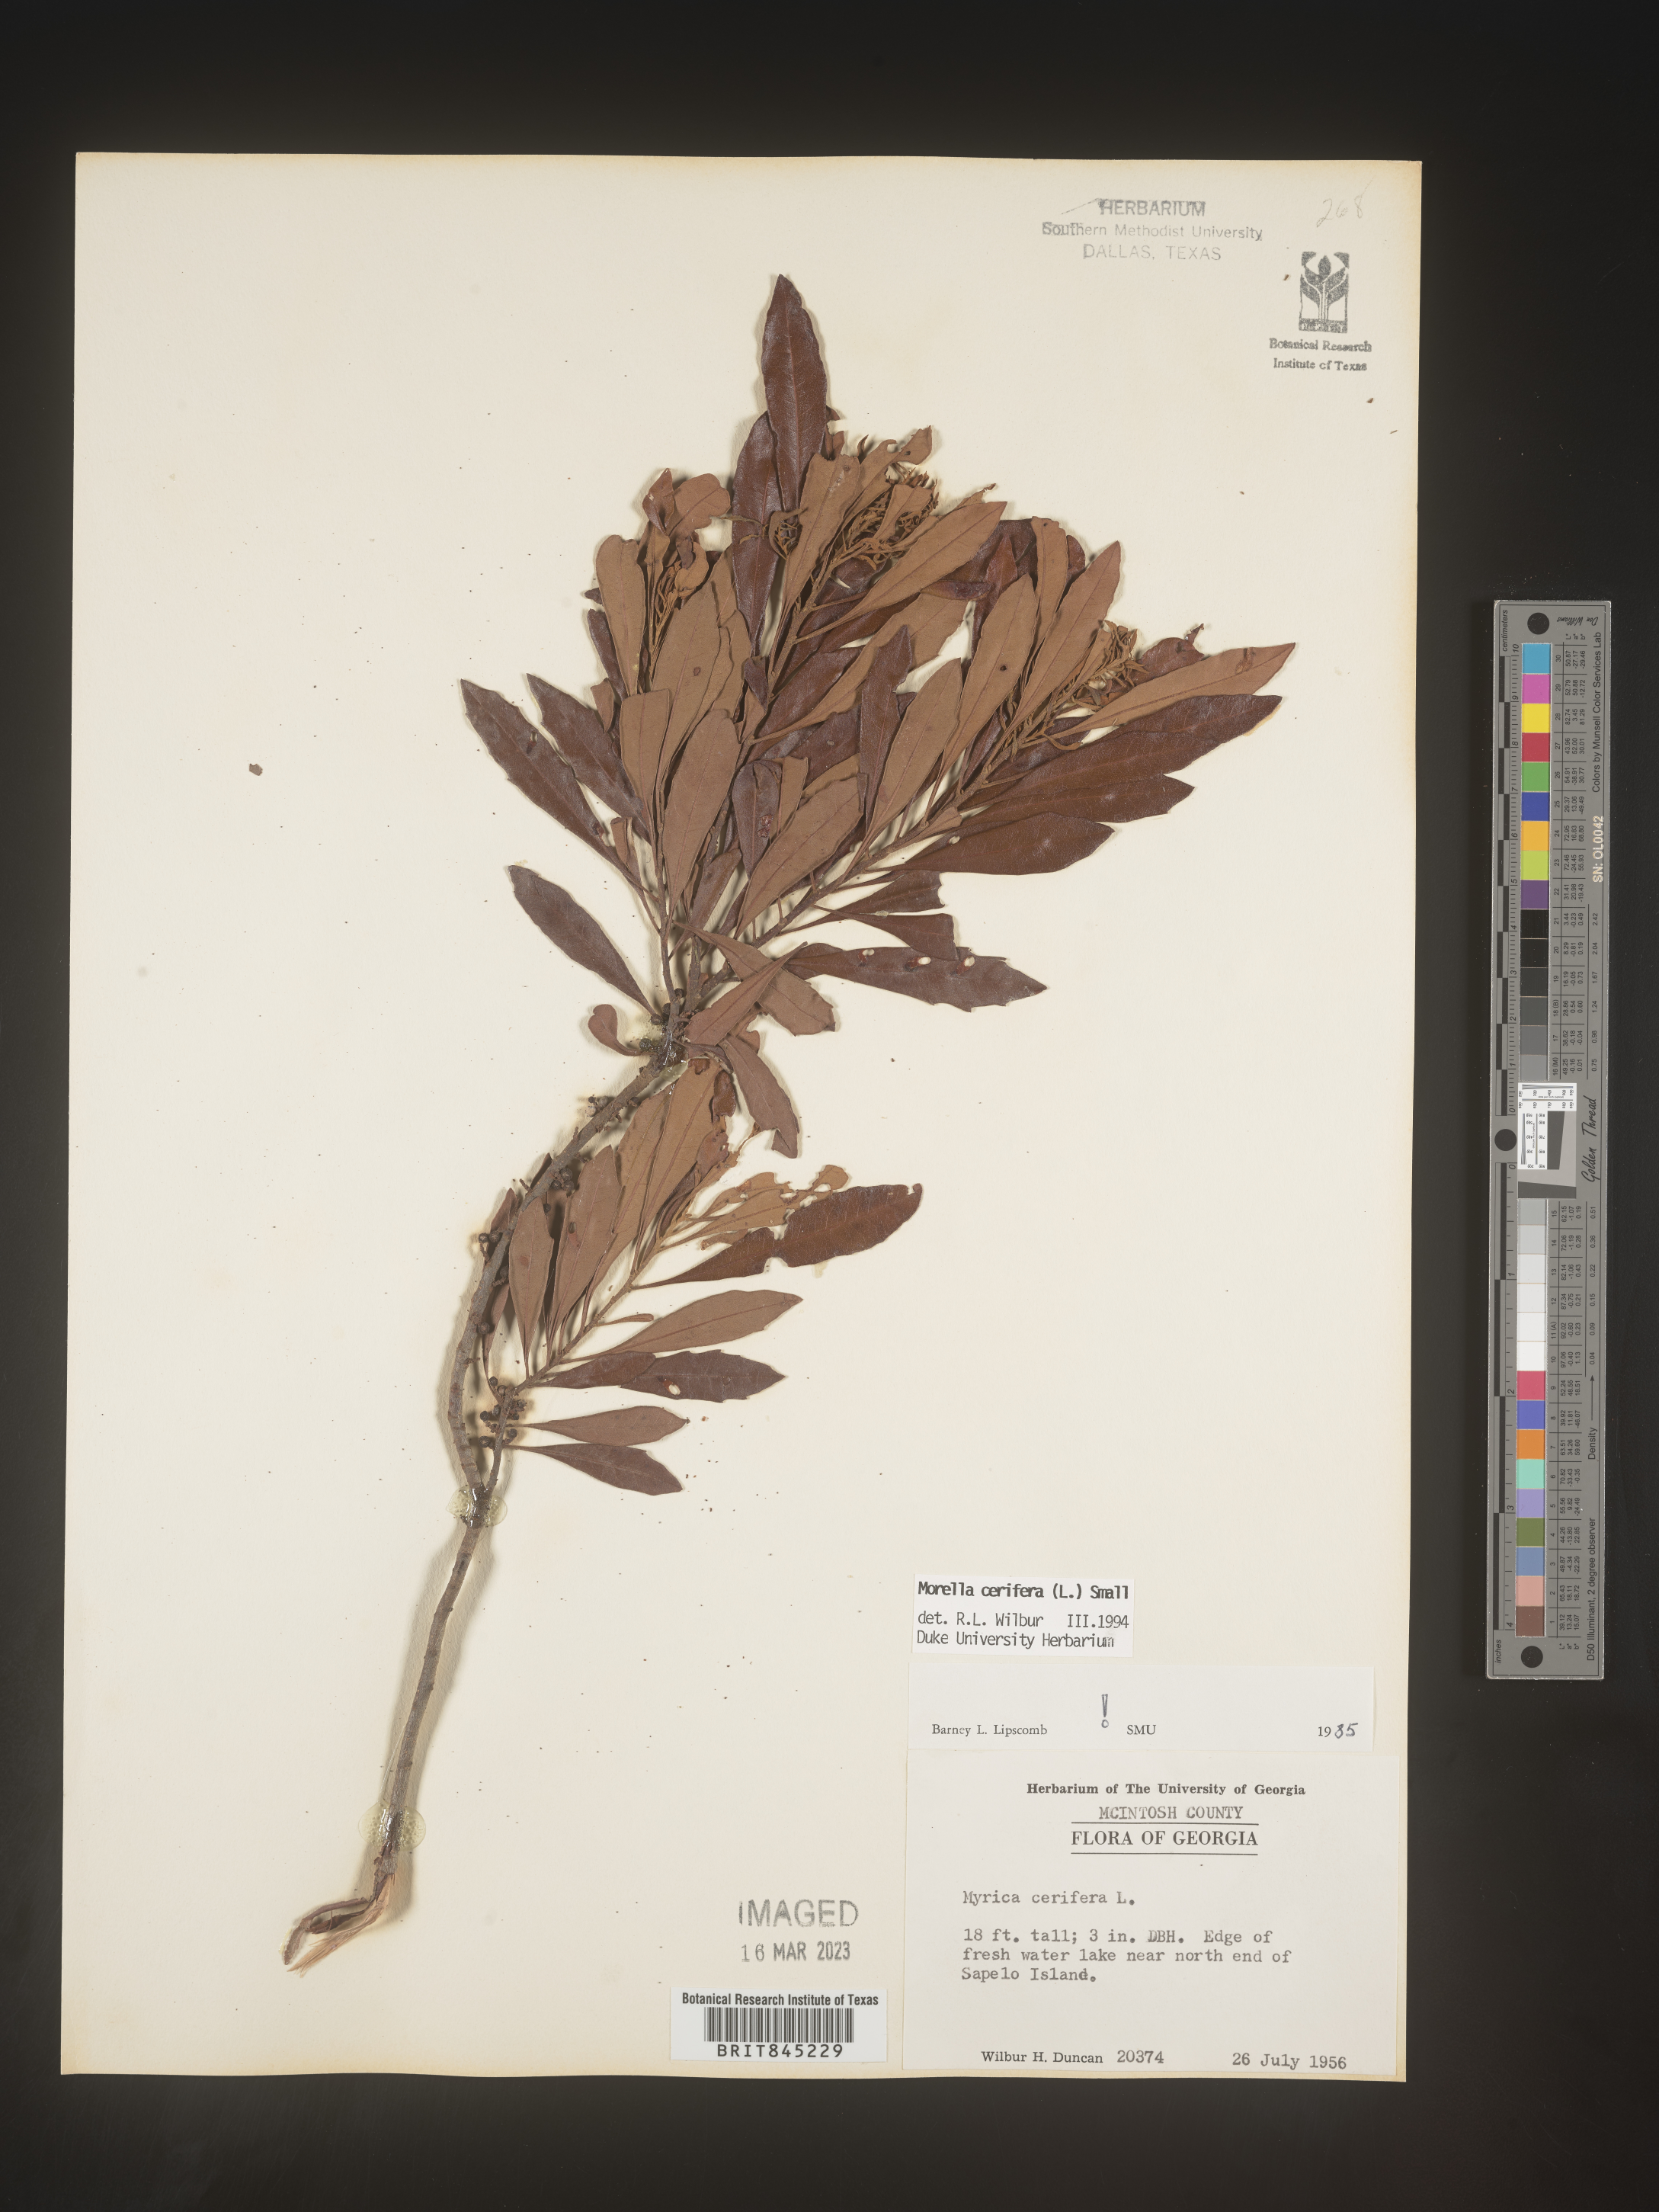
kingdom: Plantae
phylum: Tracheophyta
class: Magnoliopsida
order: Fagales
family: Myricaceae
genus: Morella
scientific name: Morella cerifera
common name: Wax myrtle
